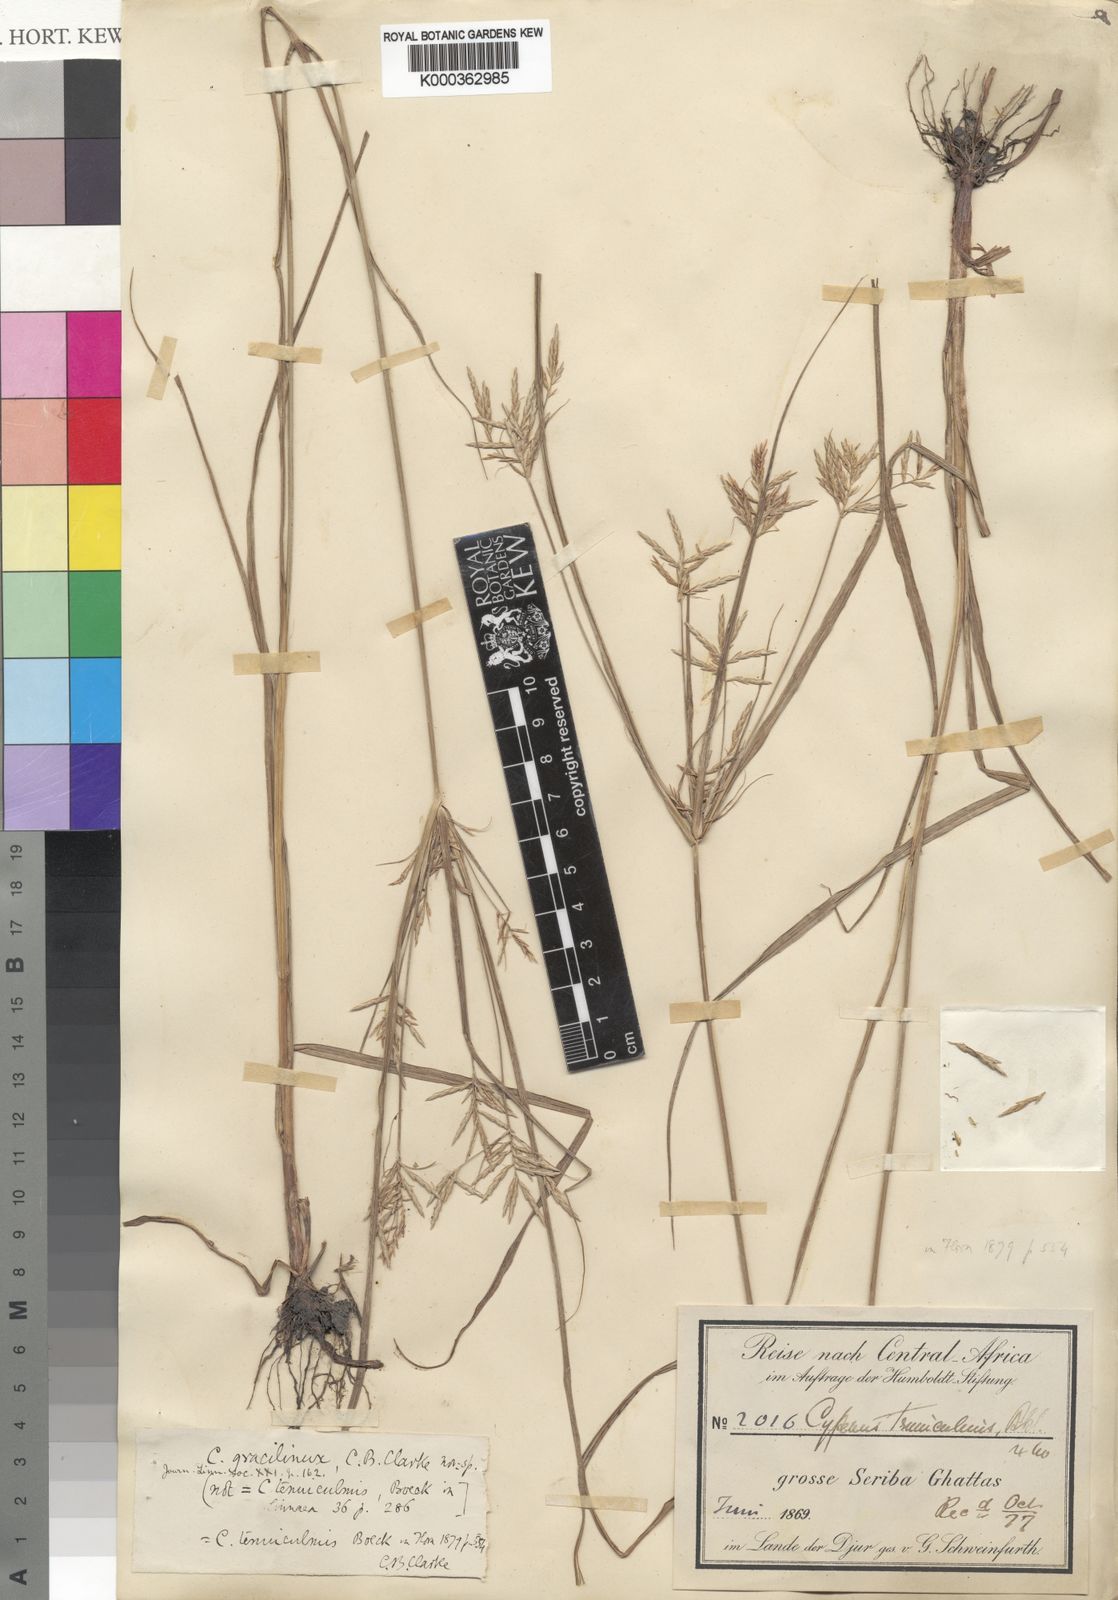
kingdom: Plantae
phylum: Tracheophyta
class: Liliopsida
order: Poales
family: Cyperaceae
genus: Cyperus
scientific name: Cyperus dilatatus
